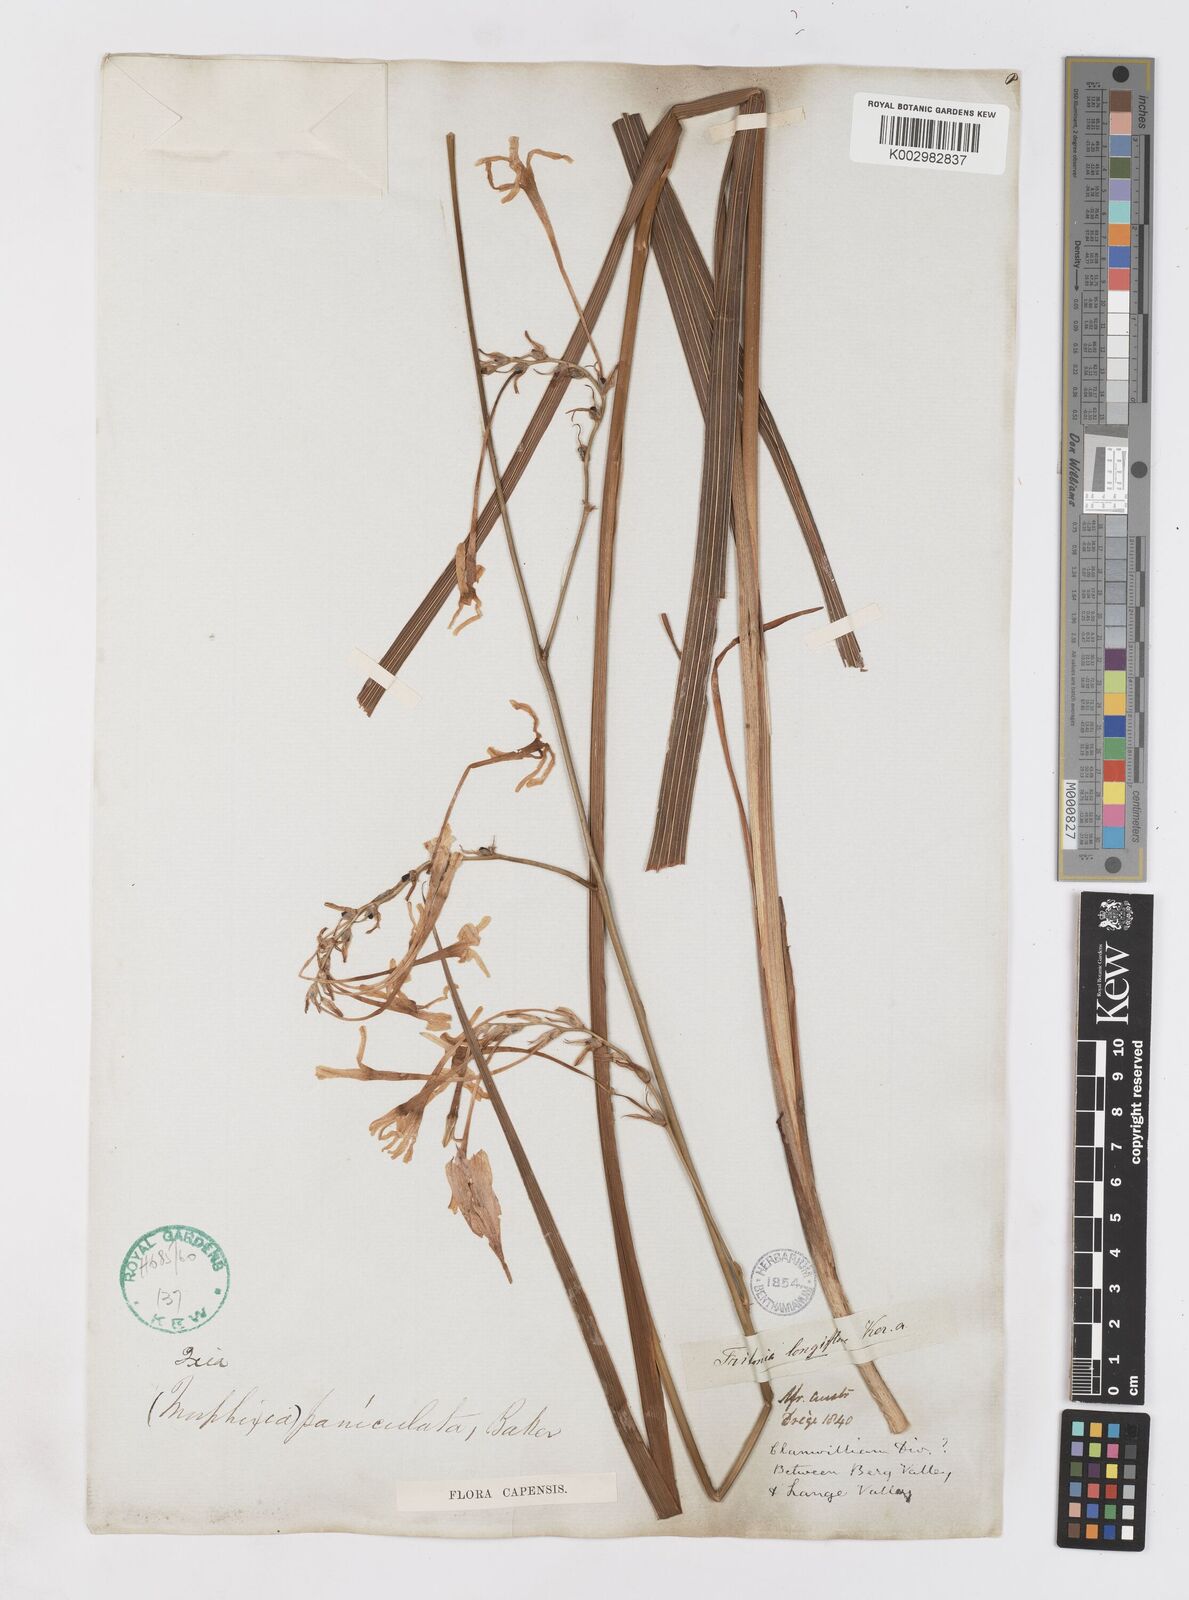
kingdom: Plantae
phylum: Tracheophyta
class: Liliopsida
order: Asparagales
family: Iridaceae
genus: Ixia
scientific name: Ixia paniculata
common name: Tubular corn-lily
